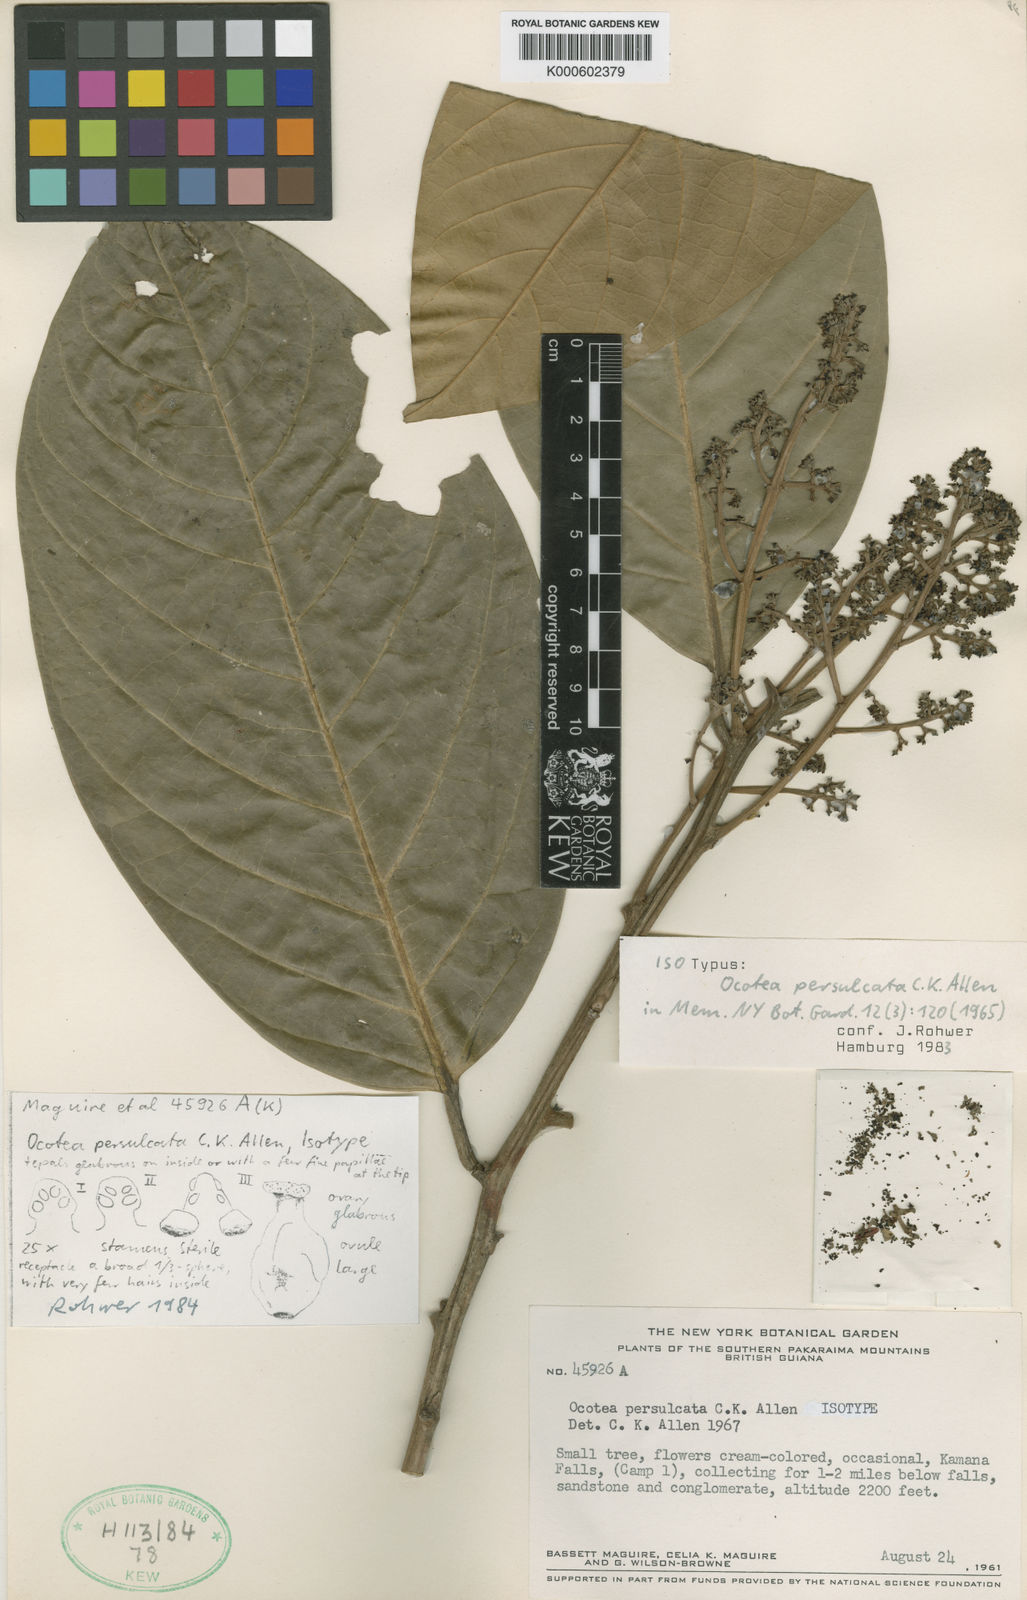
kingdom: Plantae
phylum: Tracheophyta
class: Magnoliopsida
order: Laurales
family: Lauraceae
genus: Ocotea
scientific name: Ocotea leucoxylon
